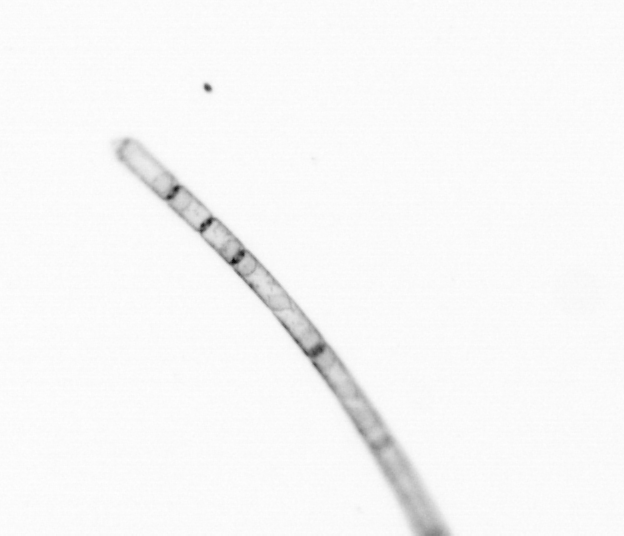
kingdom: Chromista
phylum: Ochrophyta
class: Bacillariophyceae
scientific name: Bacillariophyceae
